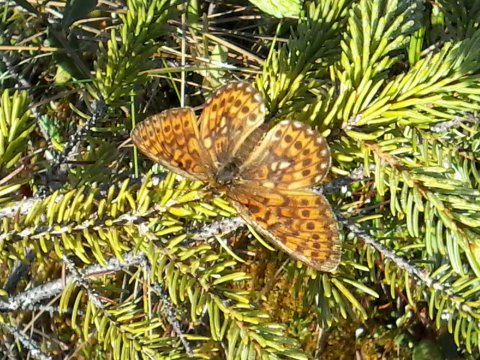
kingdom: Animalia
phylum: Arthropoda
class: Insecta
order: Lepidoptera
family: Nymphalidae
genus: Boloria
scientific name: Boloria eunomia
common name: Bog Fritillary
